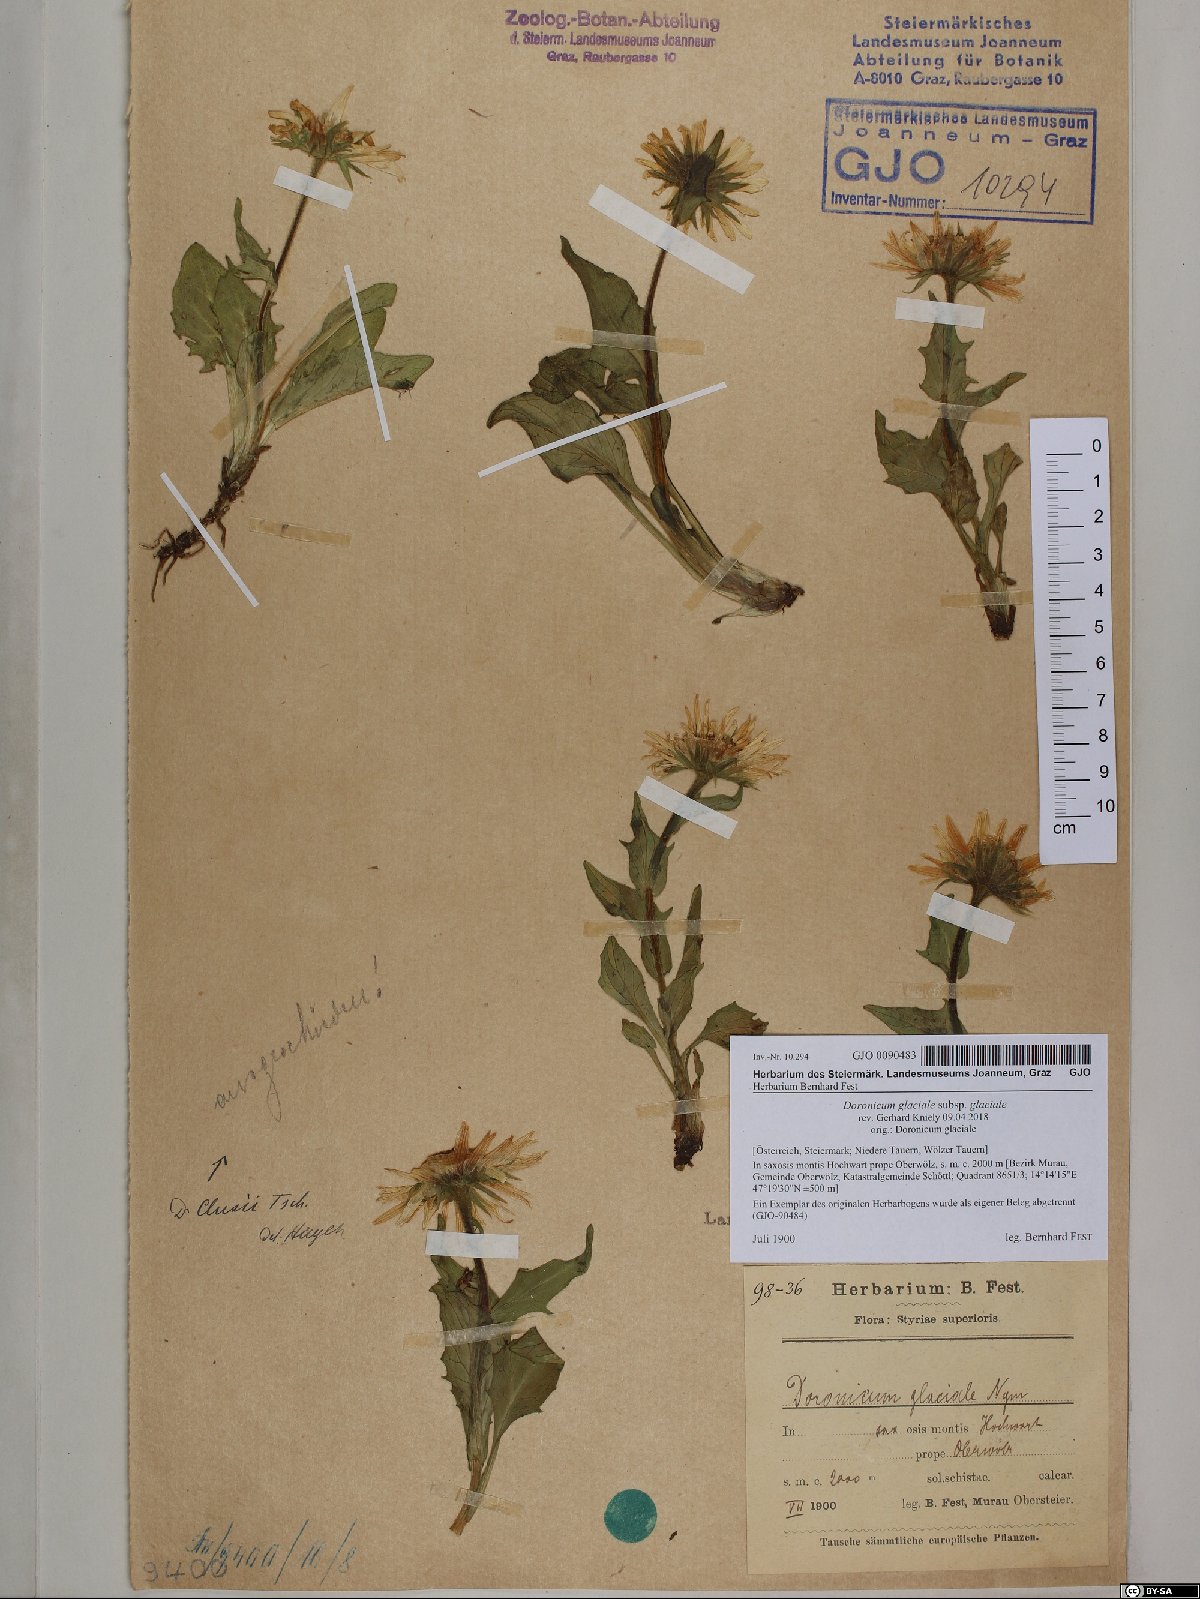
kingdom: Plantae
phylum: Tracheophyta
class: Magnoliopsida
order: Asterales
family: Asteraceae
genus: Doronicum
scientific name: Doronicum glaciale
